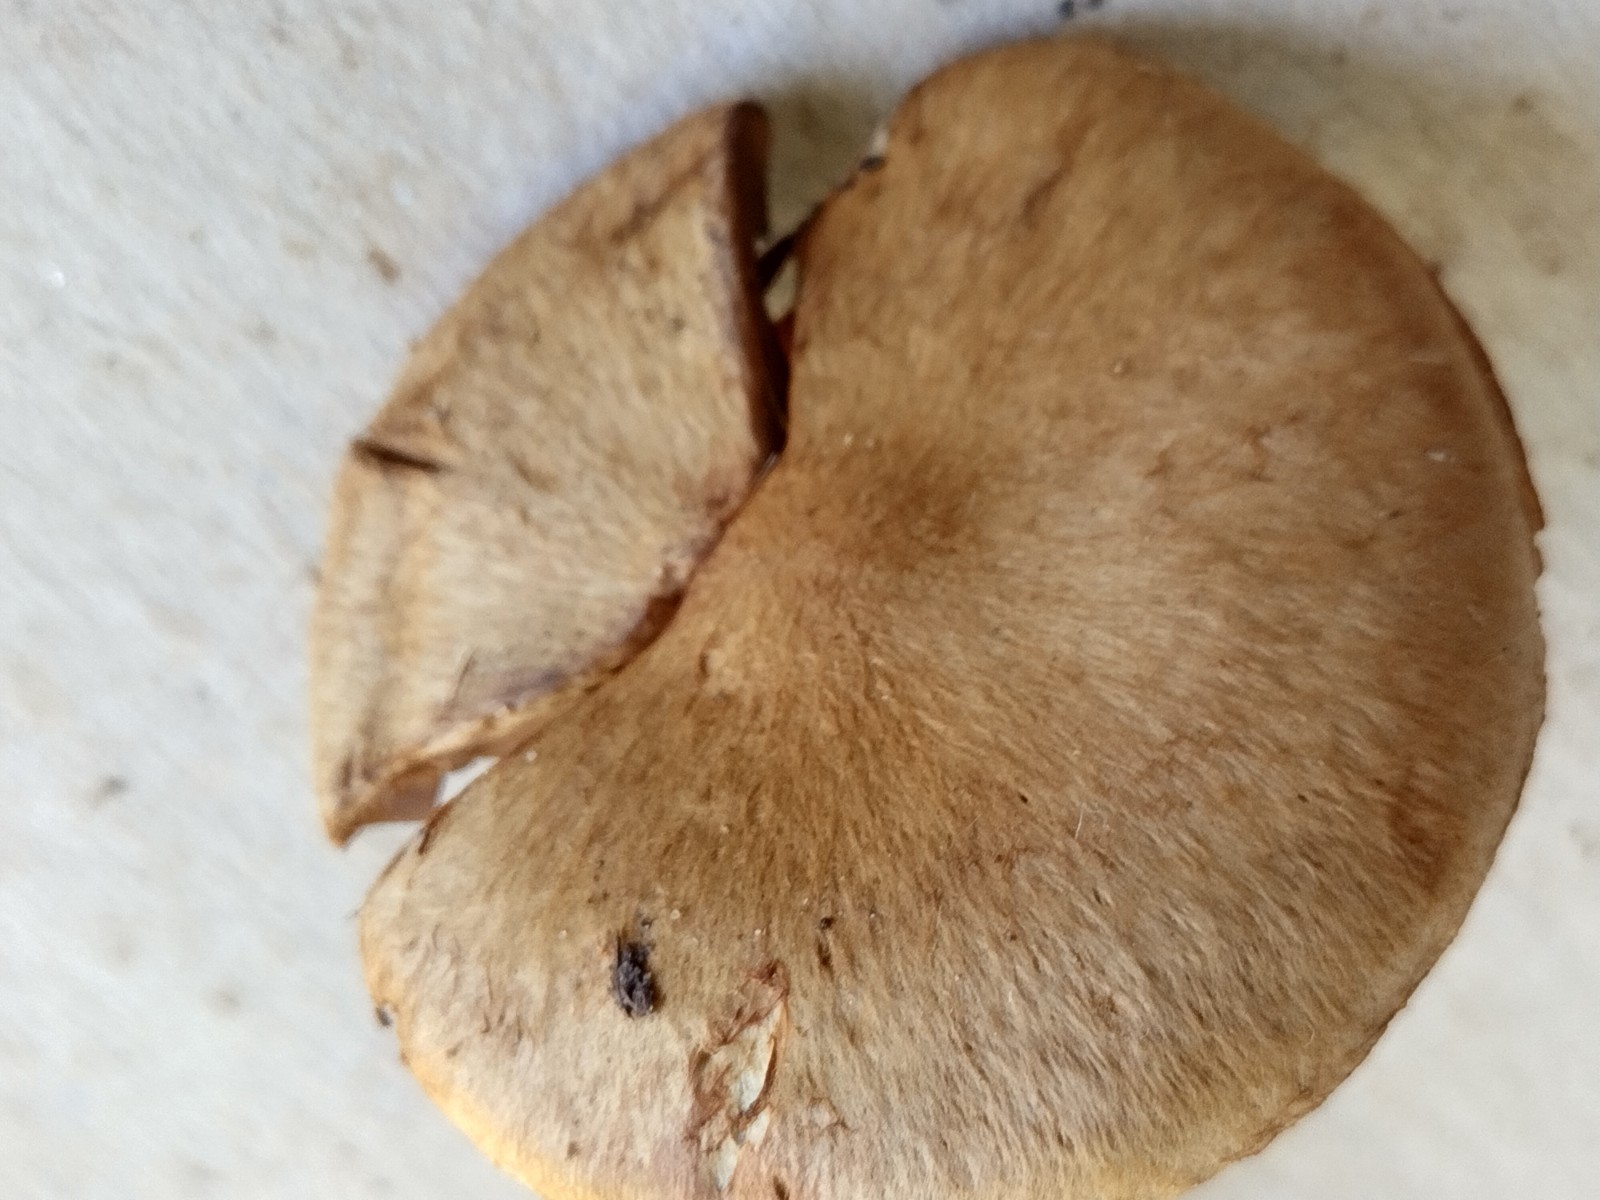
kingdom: Fungi
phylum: Basidiomycota
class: Agaricomycetes
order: Agaricales
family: Inocybaceae
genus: Mallocybe
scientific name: Mallocybe
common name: Trævlhat
